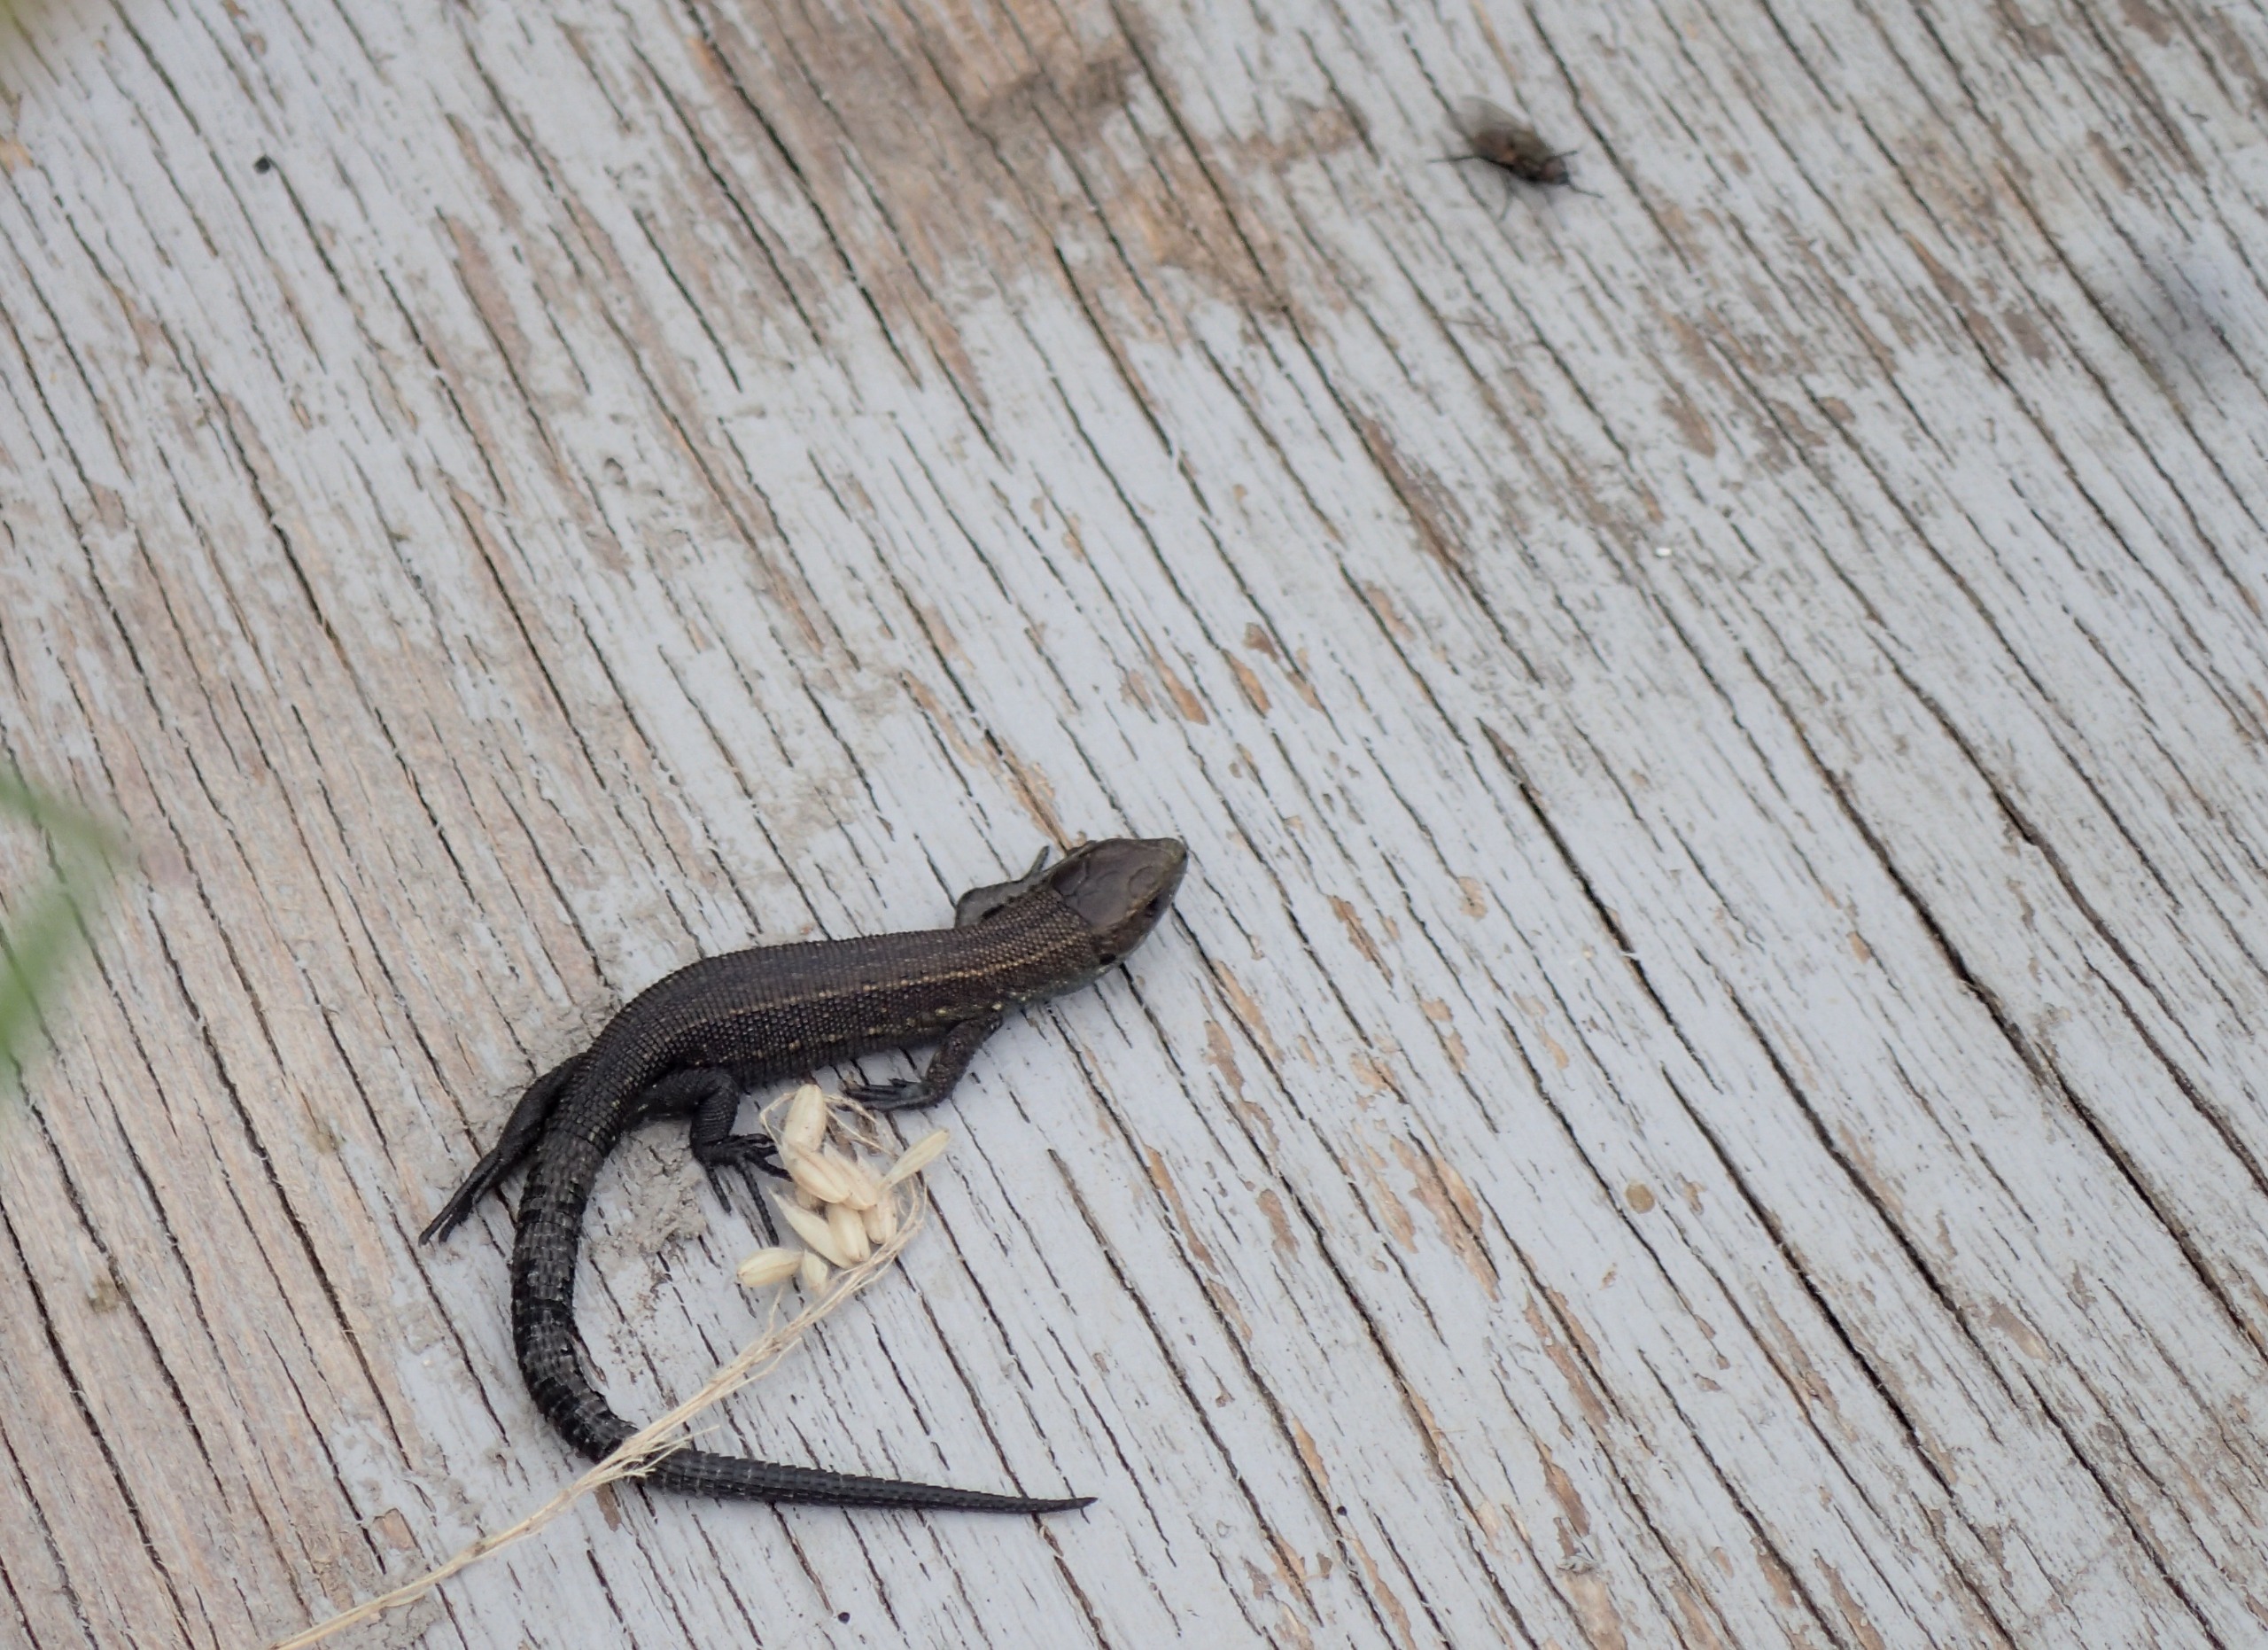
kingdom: Animalia
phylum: Chordata
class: Squamata
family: Lacertidae
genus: Zootoca
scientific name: Zootoca vivipara
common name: Skovfirben
